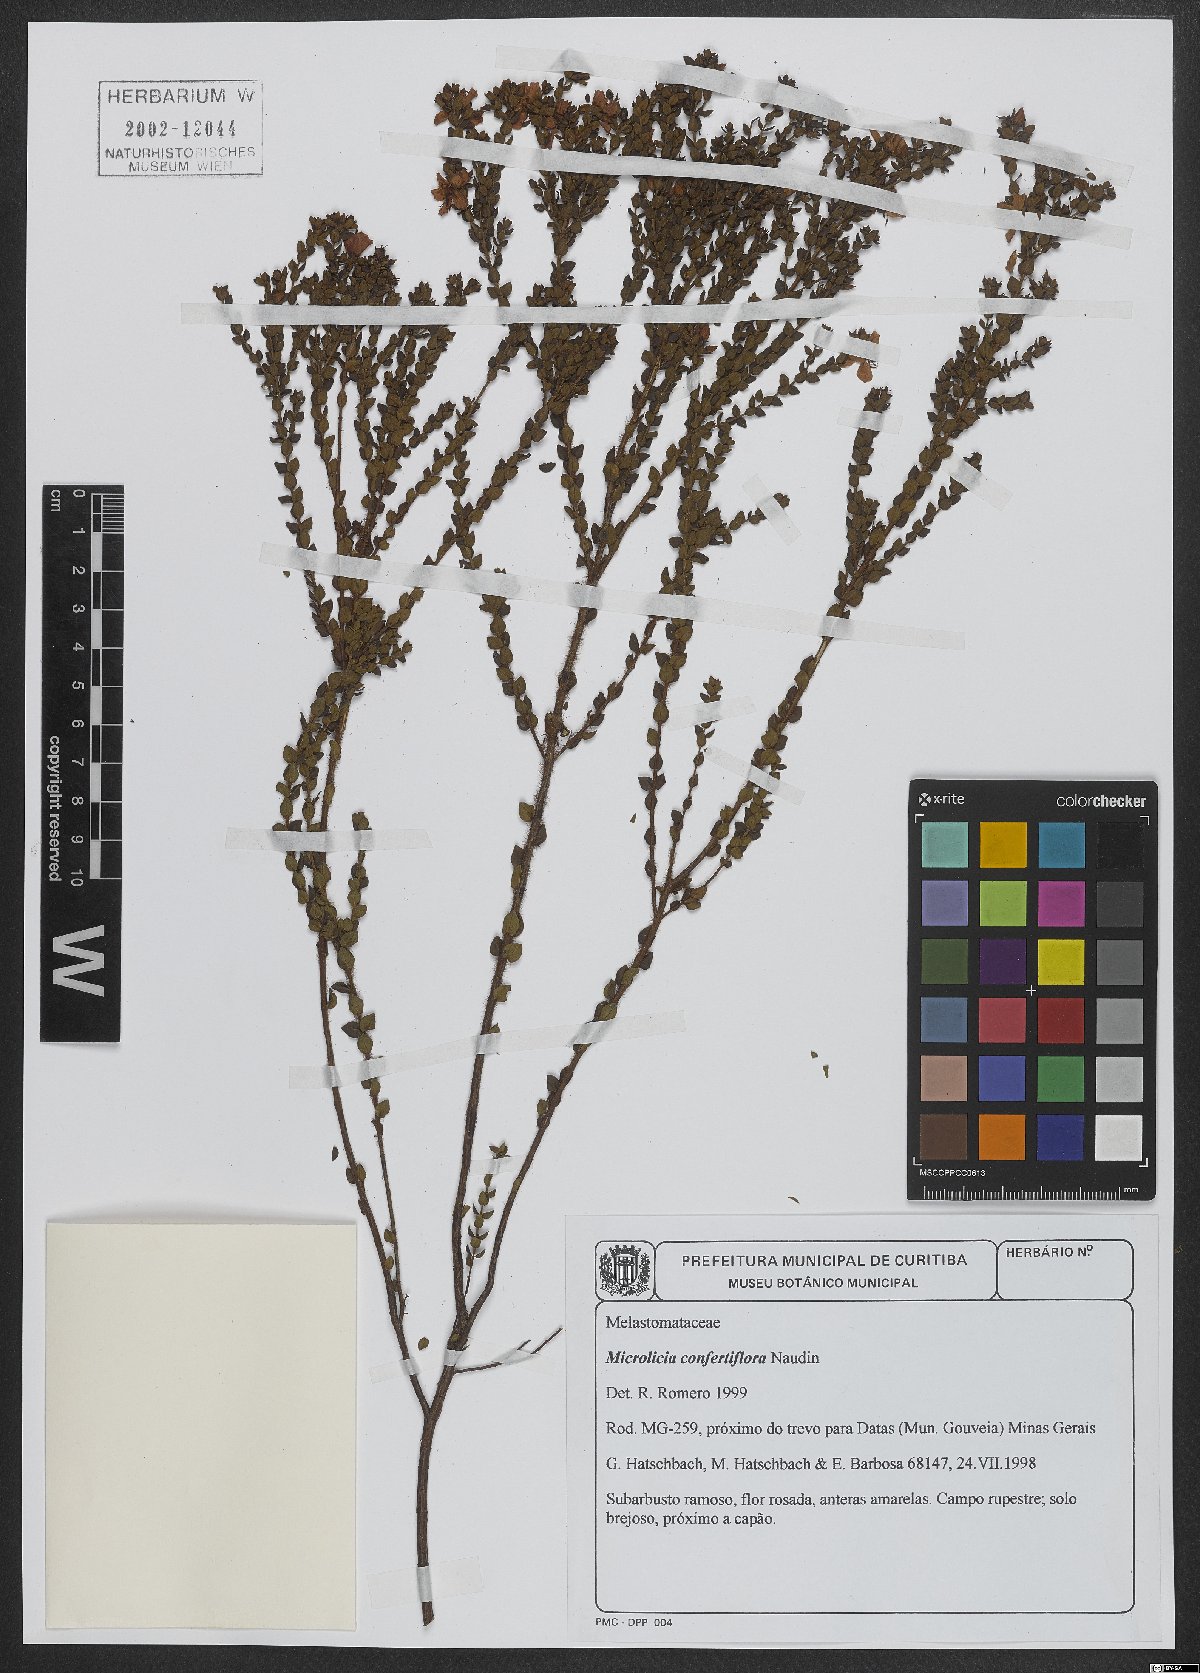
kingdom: Plantae
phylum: Tracheophyta
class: Magnoliopsida
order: Myrtales
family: Melastomataceae
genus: Microlicia
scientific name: Microlicia confertiflora
